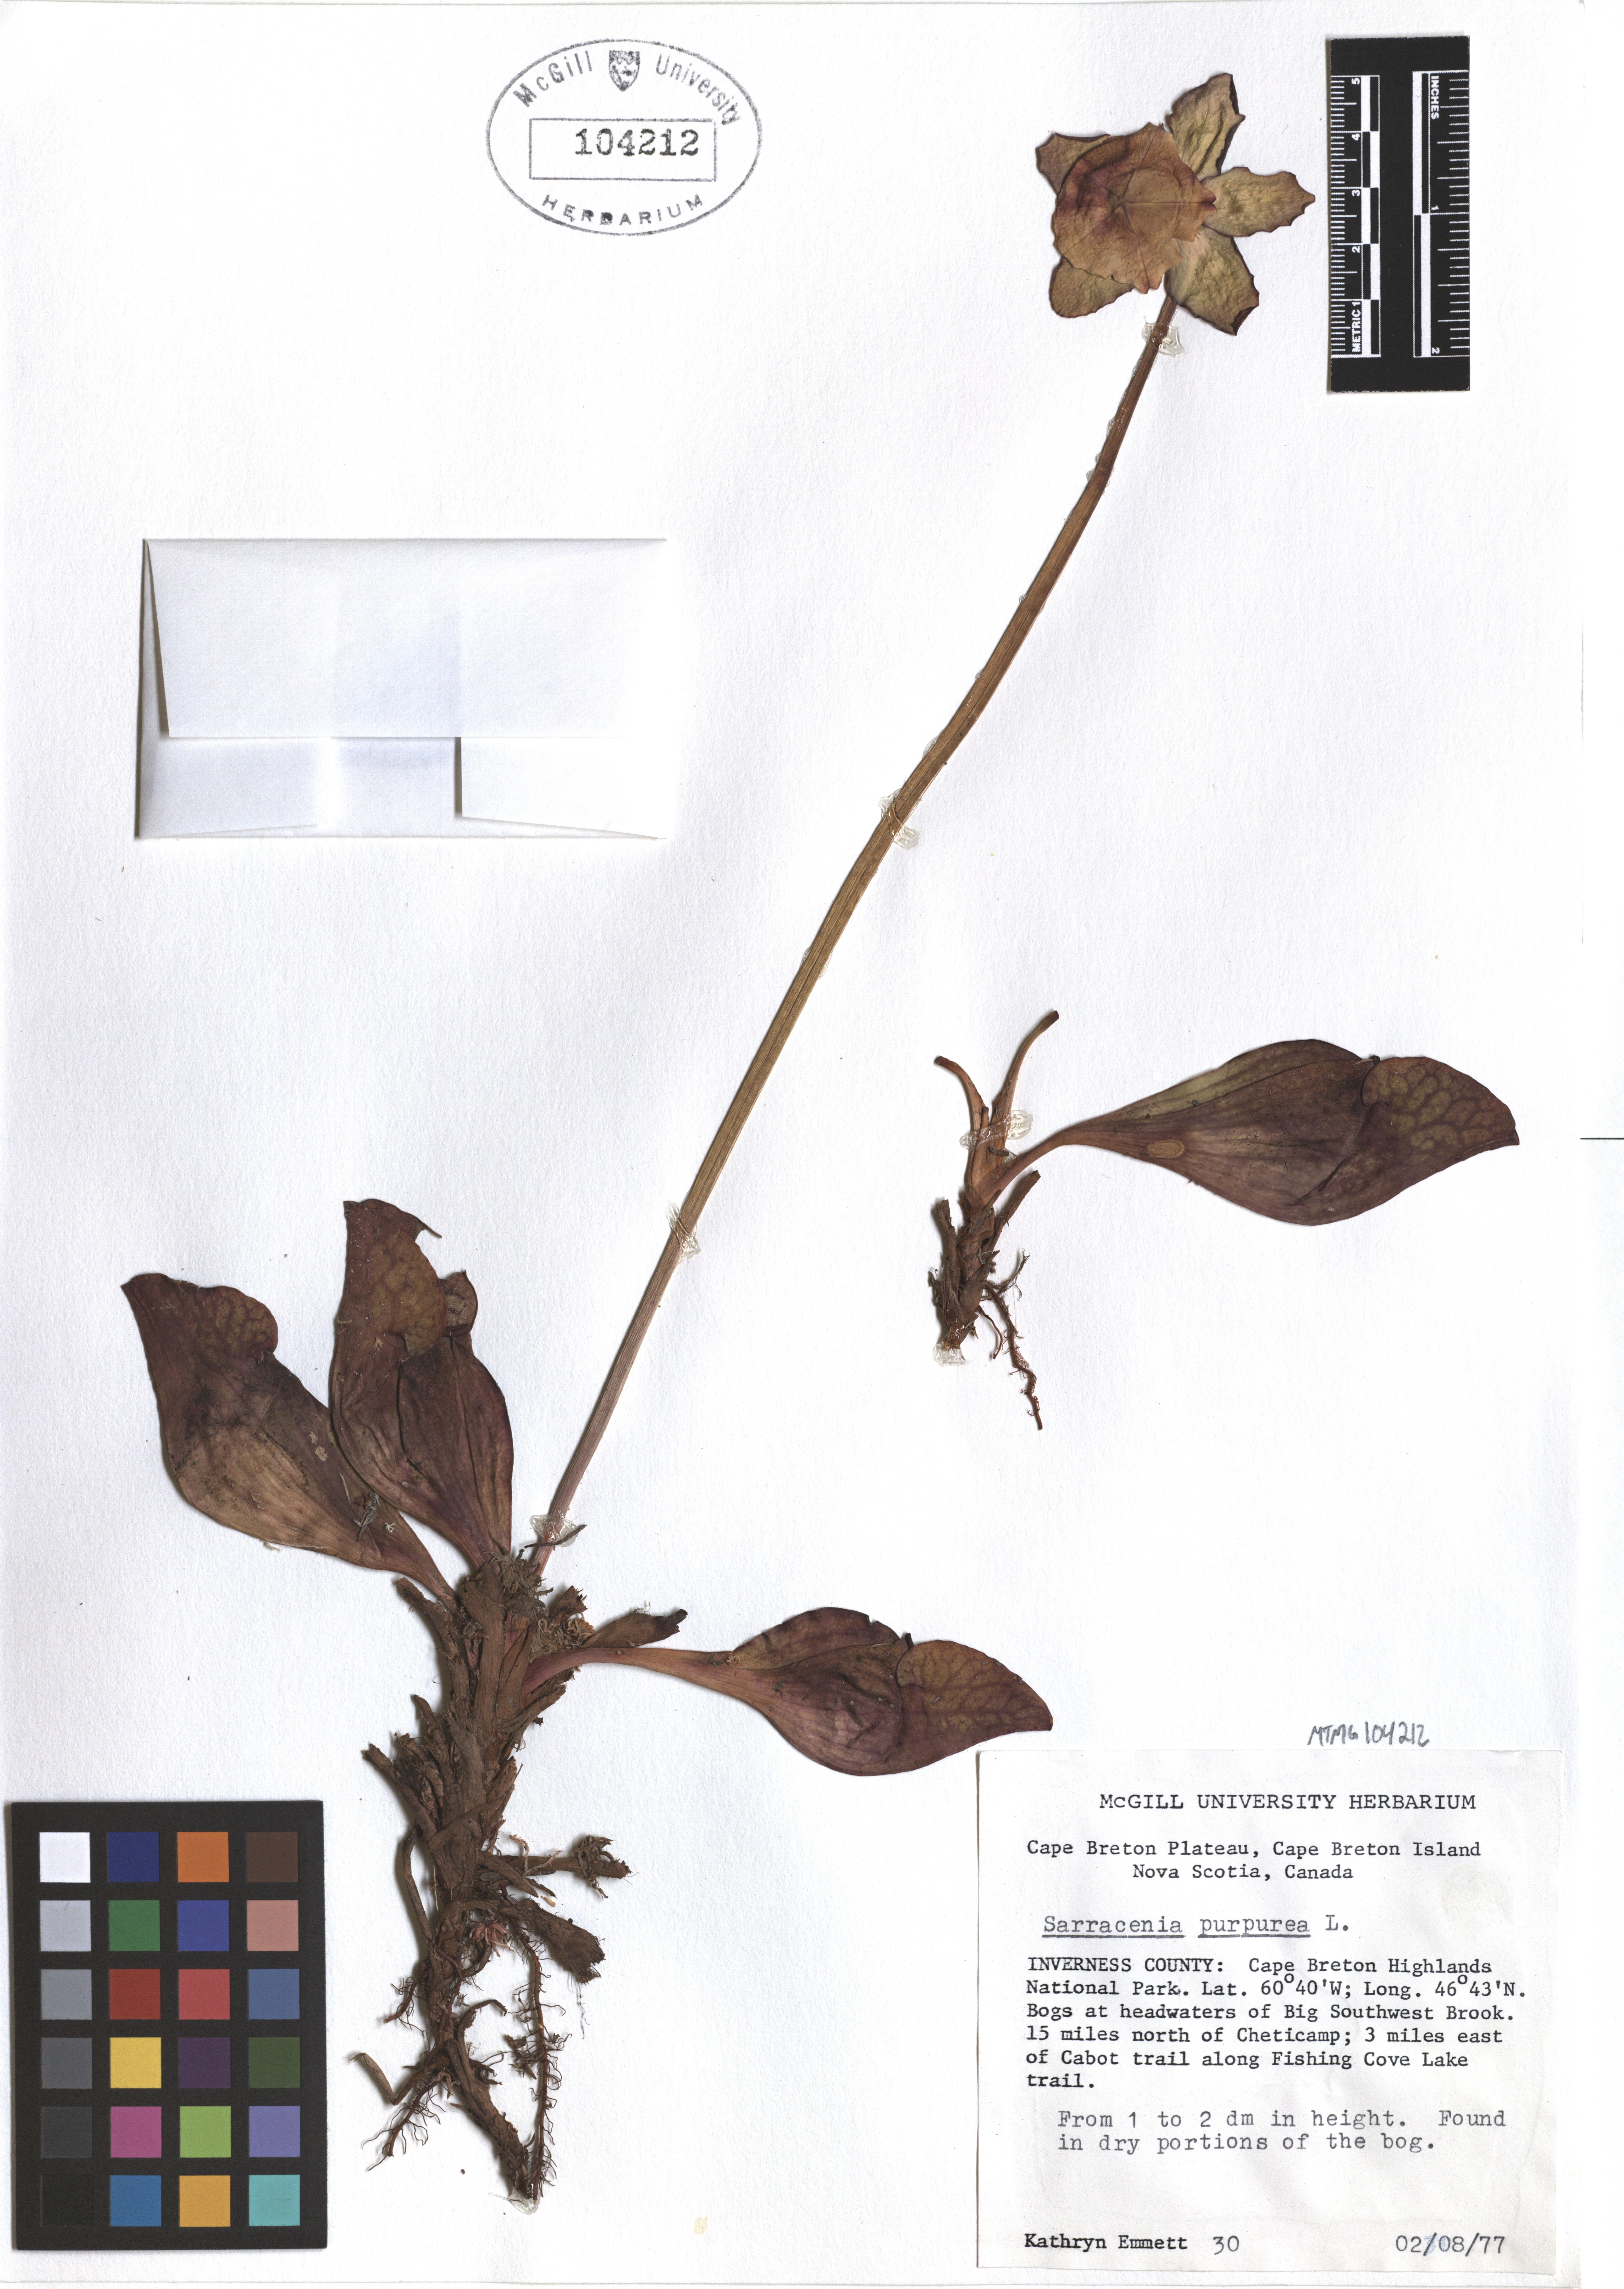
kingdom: Plantae
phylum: Tracheophyta
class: Magnoliopsida
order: Ericales
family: Sarraceniaceae
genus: Sarracenia
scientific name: Sarracenia purpurea
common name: Pitcherplant
